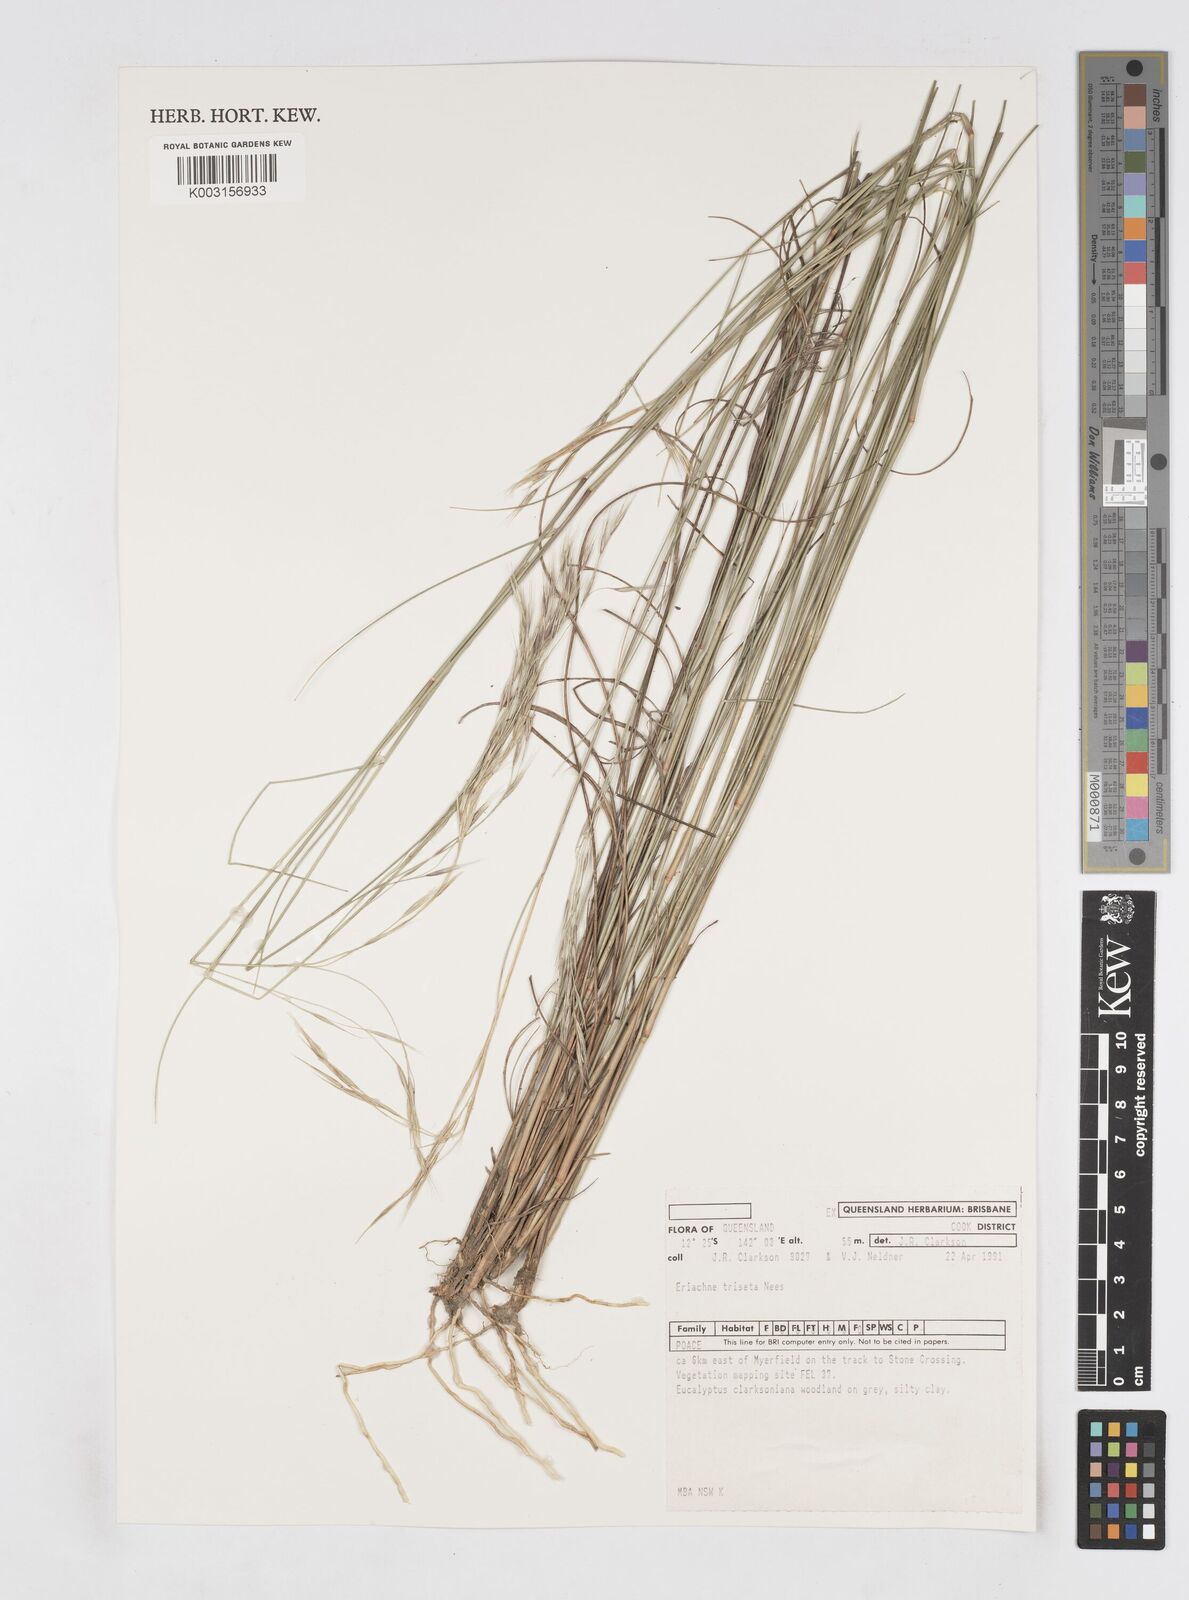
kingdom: Plantae
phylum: Tracheophyta
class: Liliopsida
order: Poales
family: Poaceae
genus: Eriachne
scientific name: Eriachne triseta
